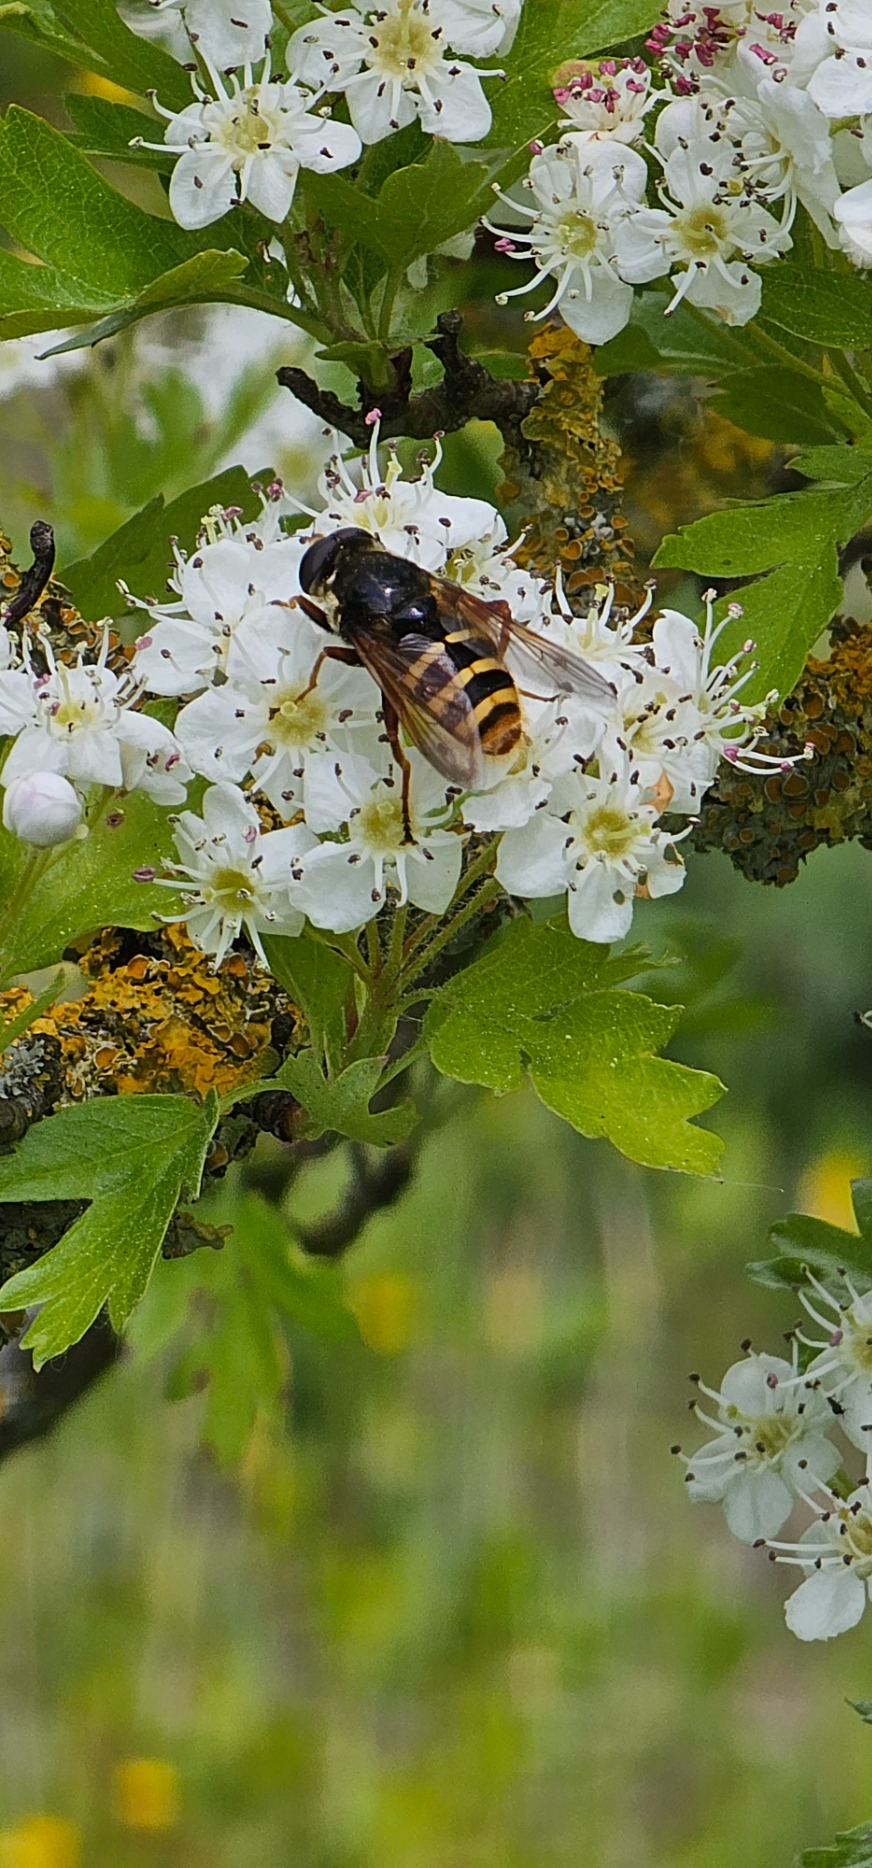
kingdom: Animalia
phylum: Arthropoda
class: Insecta
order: Diptera
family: Syrphidae
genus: Sericomyia
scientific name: Sericomyia silentis
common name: Tørve-silkesvirreflue
